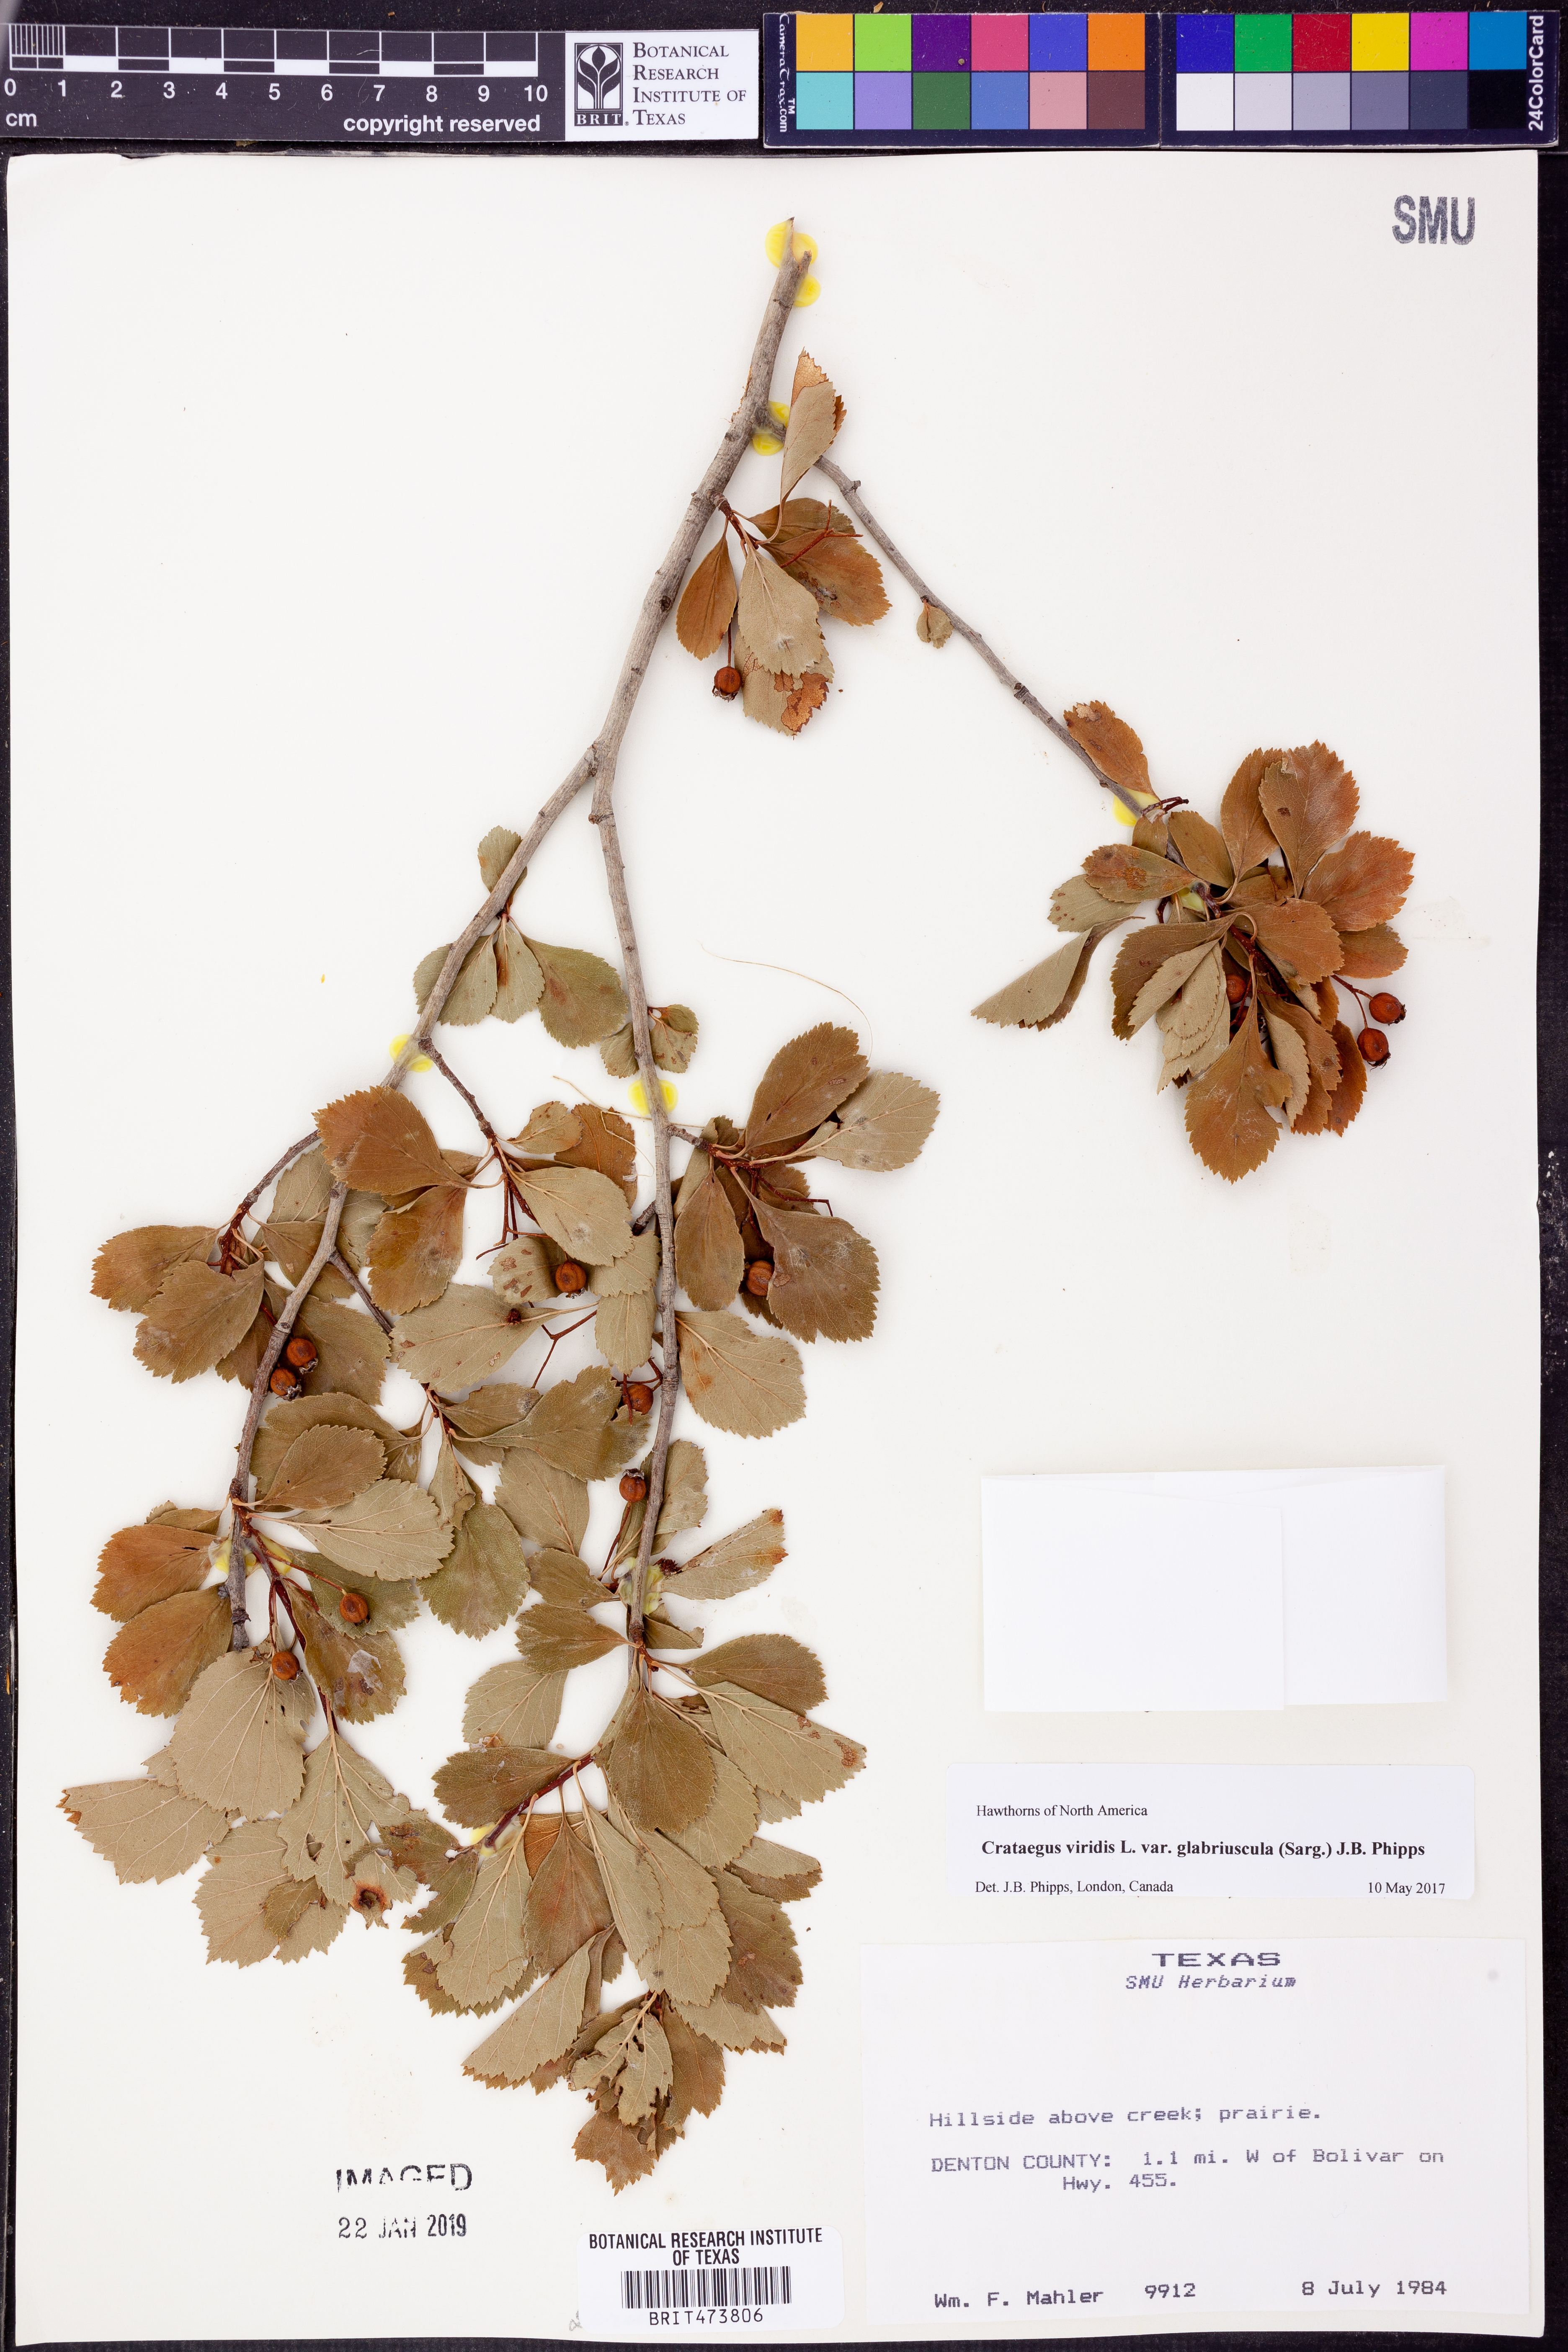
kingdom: Plantae
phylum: Tracheophyta
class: Magnoliopsida
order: Rosales
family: Rosaceae
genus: Crataegus
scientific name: Crataegus viridis
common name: Southernthorn
